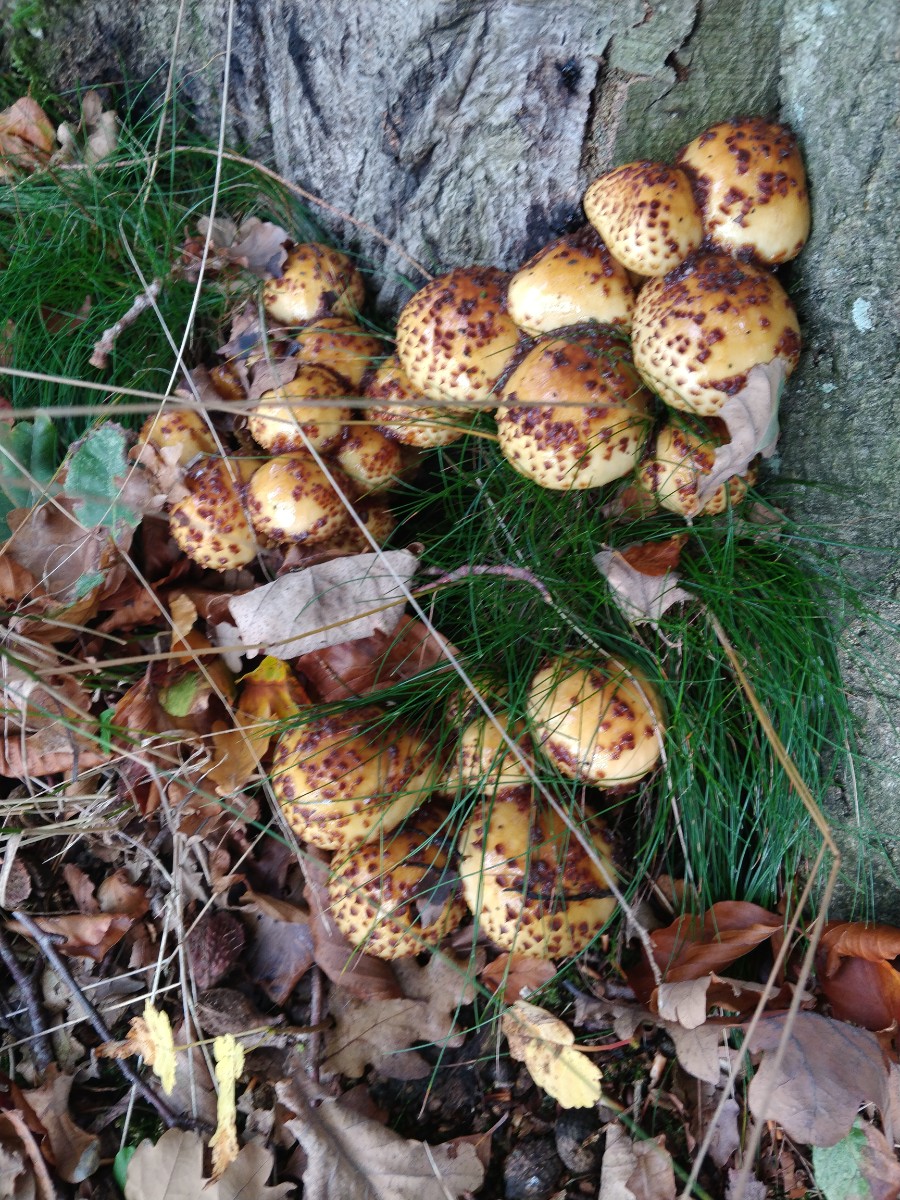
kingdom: Fungi
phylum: Basidiomycota
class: Agaricomycetes
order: Agaricales
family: Strophariaceae
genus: Pholiota
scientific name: Pholiota jahnii
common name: slimet skælhat
